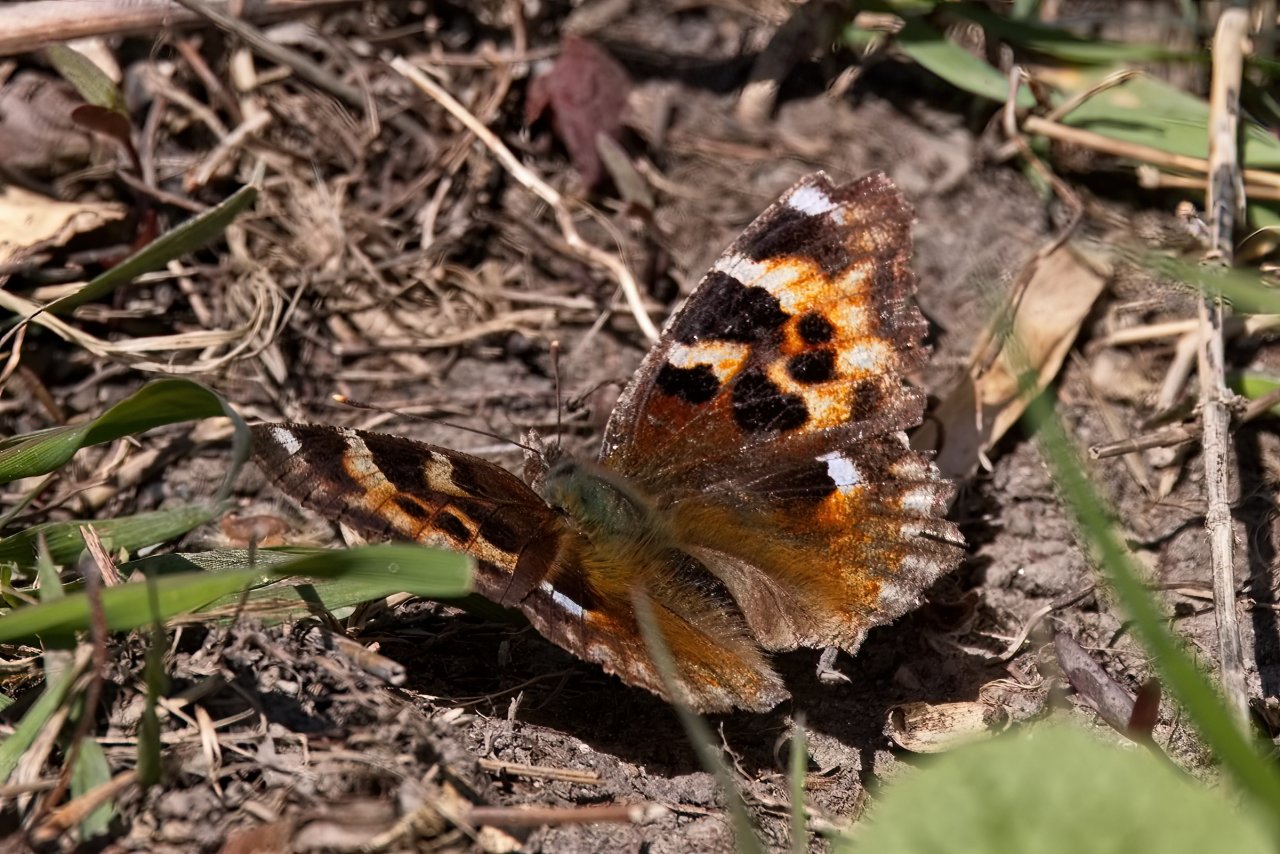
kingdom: Animalia
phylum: Arthropoda
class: Insecta
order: Lepidoptera
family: Nymphalidae
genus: Polygonia
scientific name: Polygonia vaualbum
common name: Compton Tortoiseshell
